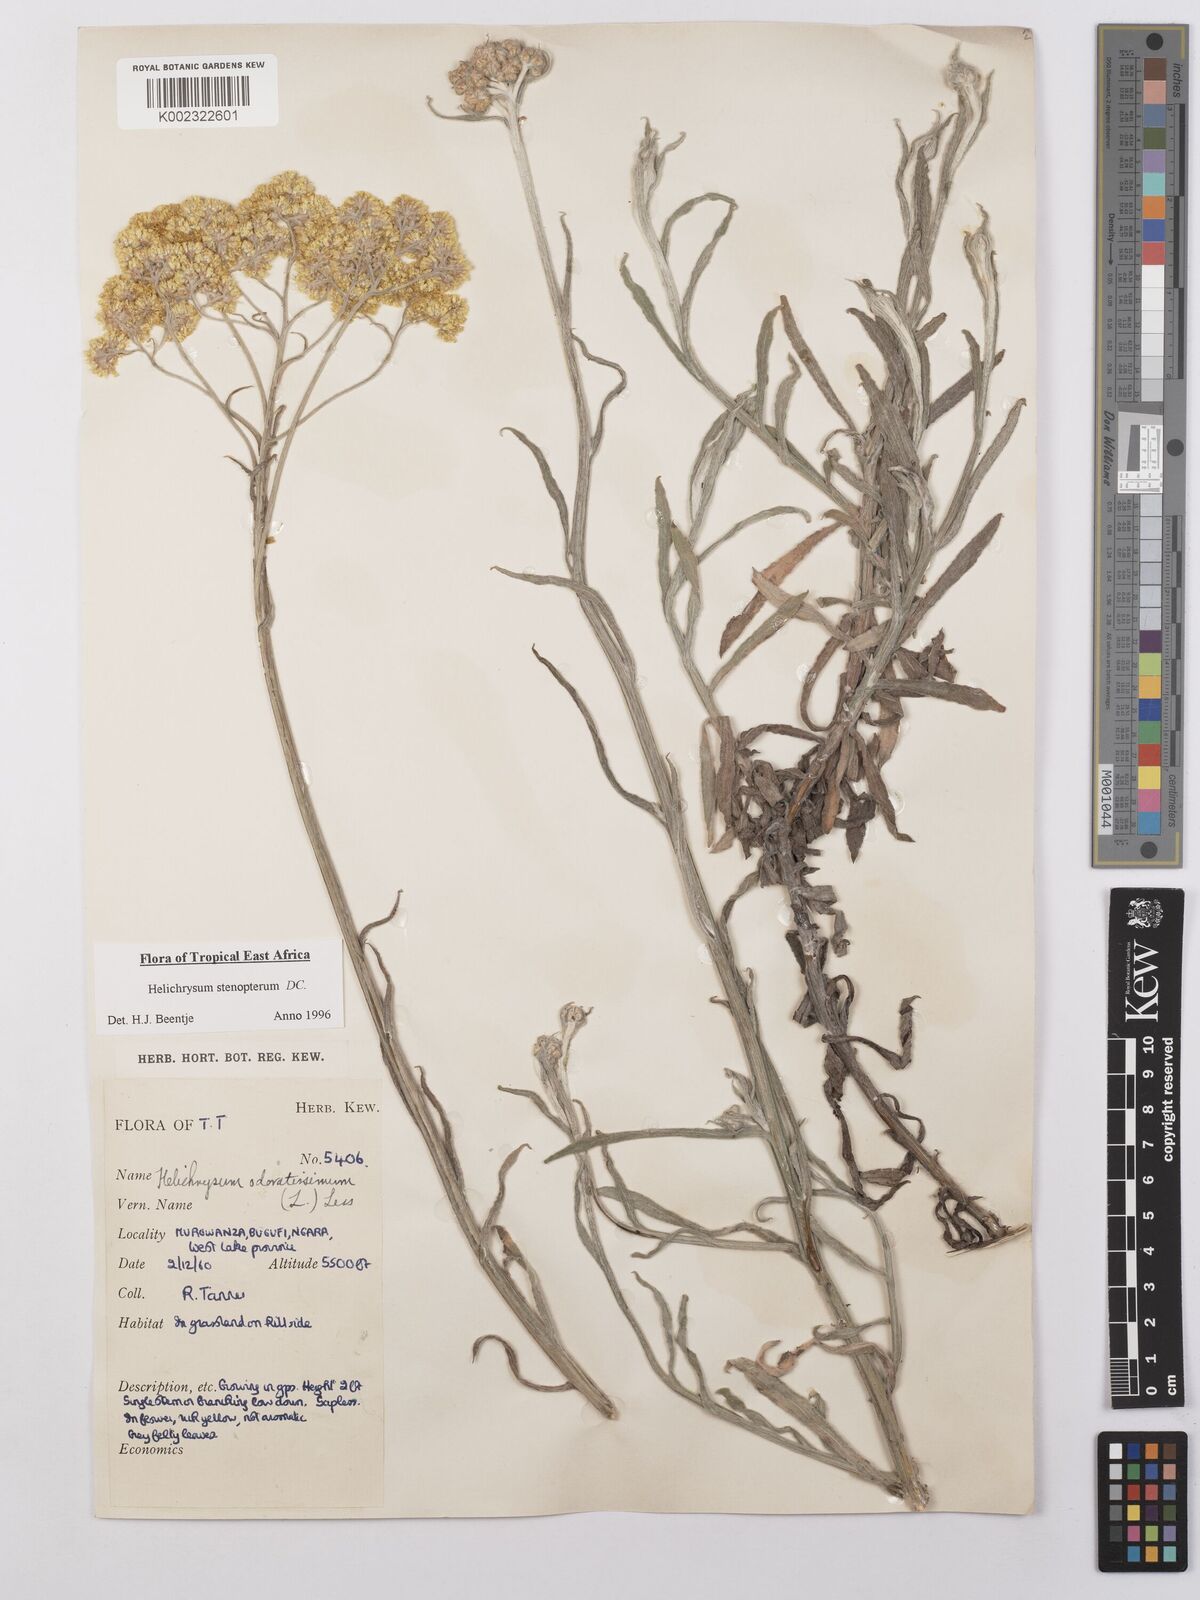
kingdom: Plantae
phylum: Tracheophyta
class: Magnoliopsida
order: Asterales
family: Asteraceae
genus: Helichrysum
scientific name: Helichrysum stenopterum
